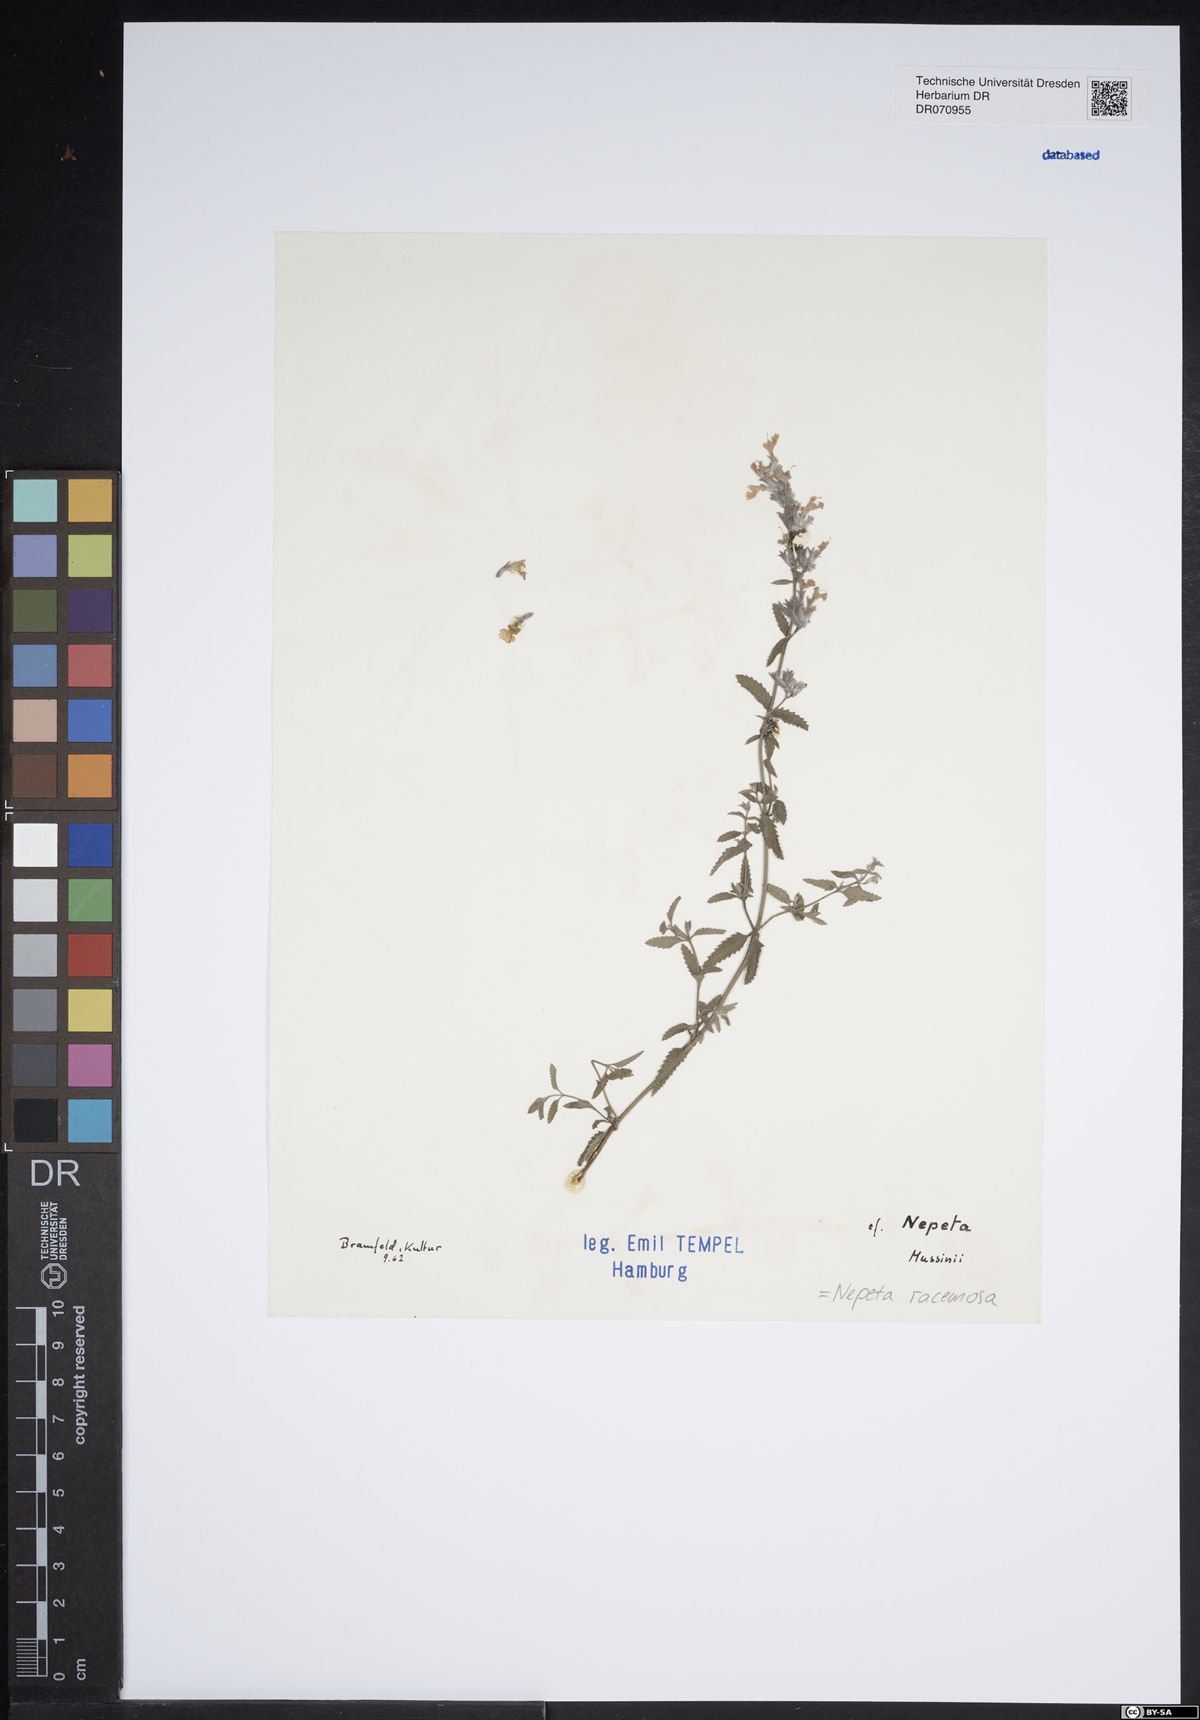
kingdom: Plantae
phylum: Tracheophyta
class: Magnoliopsida
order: Lamiales
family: Lamiaceae
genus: Nepeta
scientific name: Nepeta racemosa
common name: Raceme catnip
